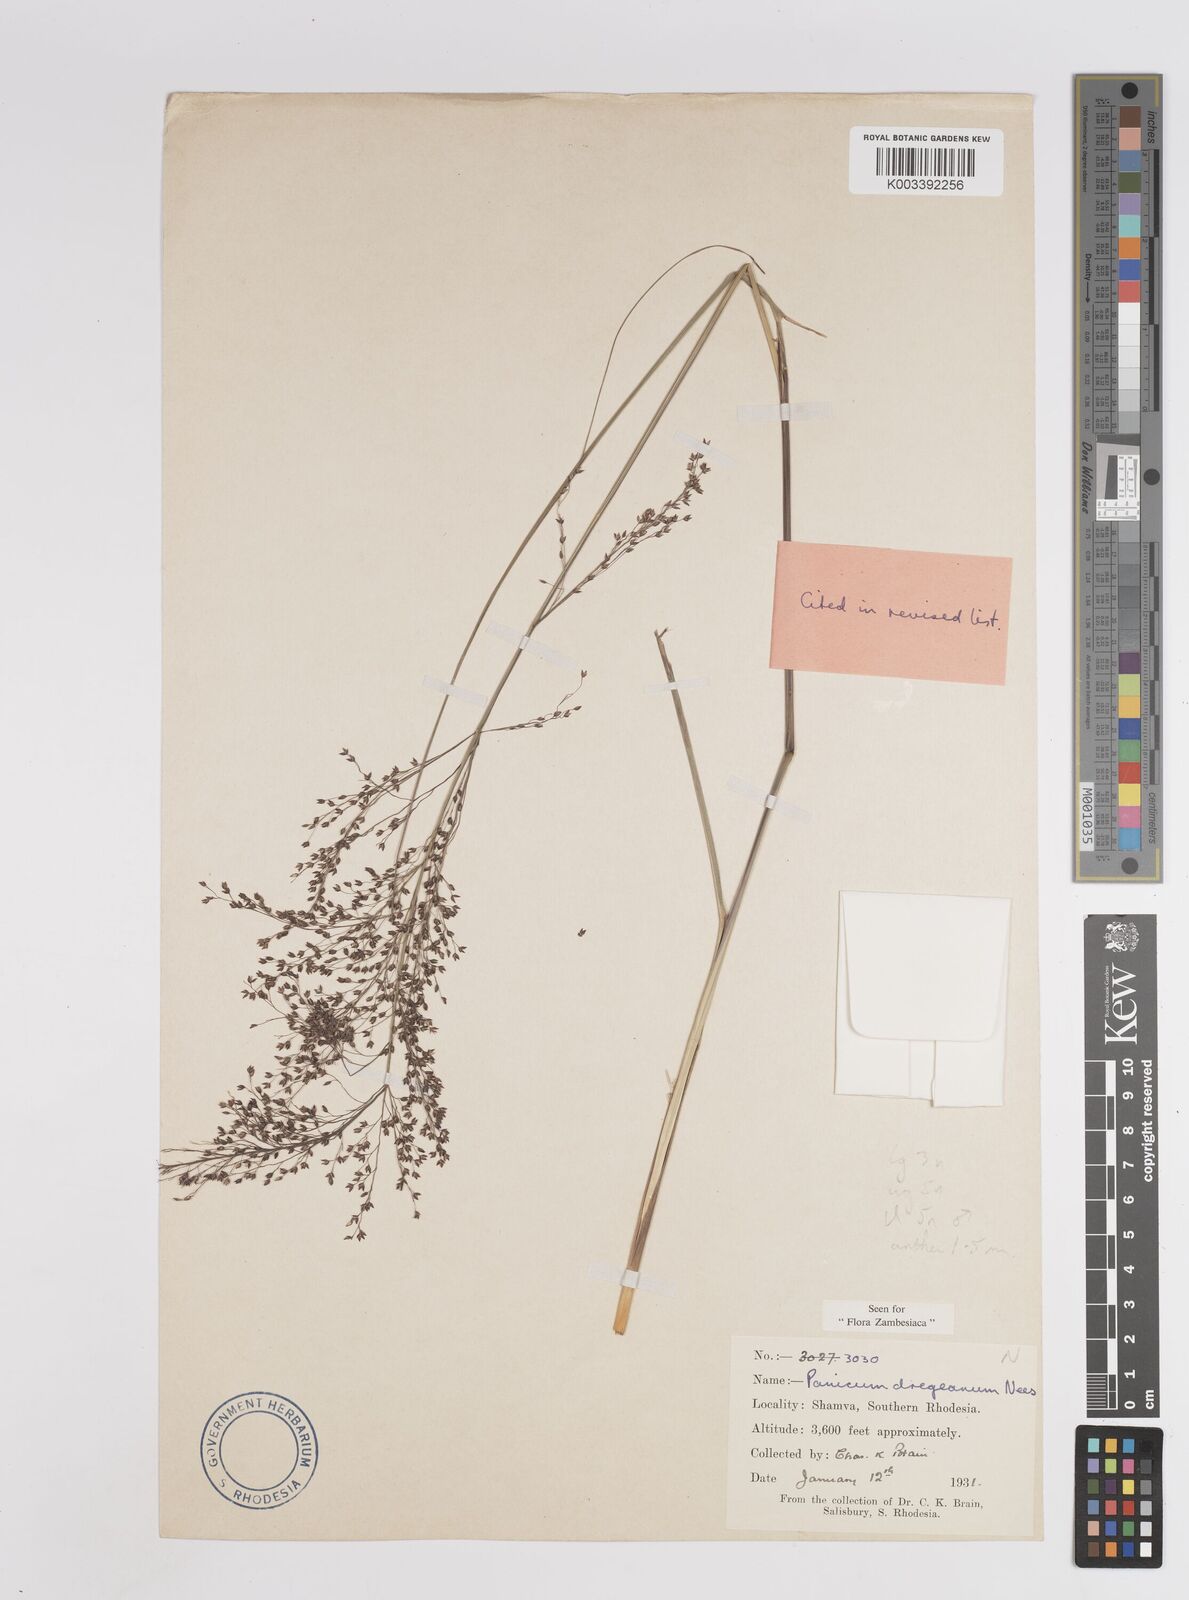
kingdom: Plantae
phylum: Tracheophyta
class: Liliopsida
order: Poales
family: Poaceae
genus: Panicum
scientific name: Panicum dregeanum
